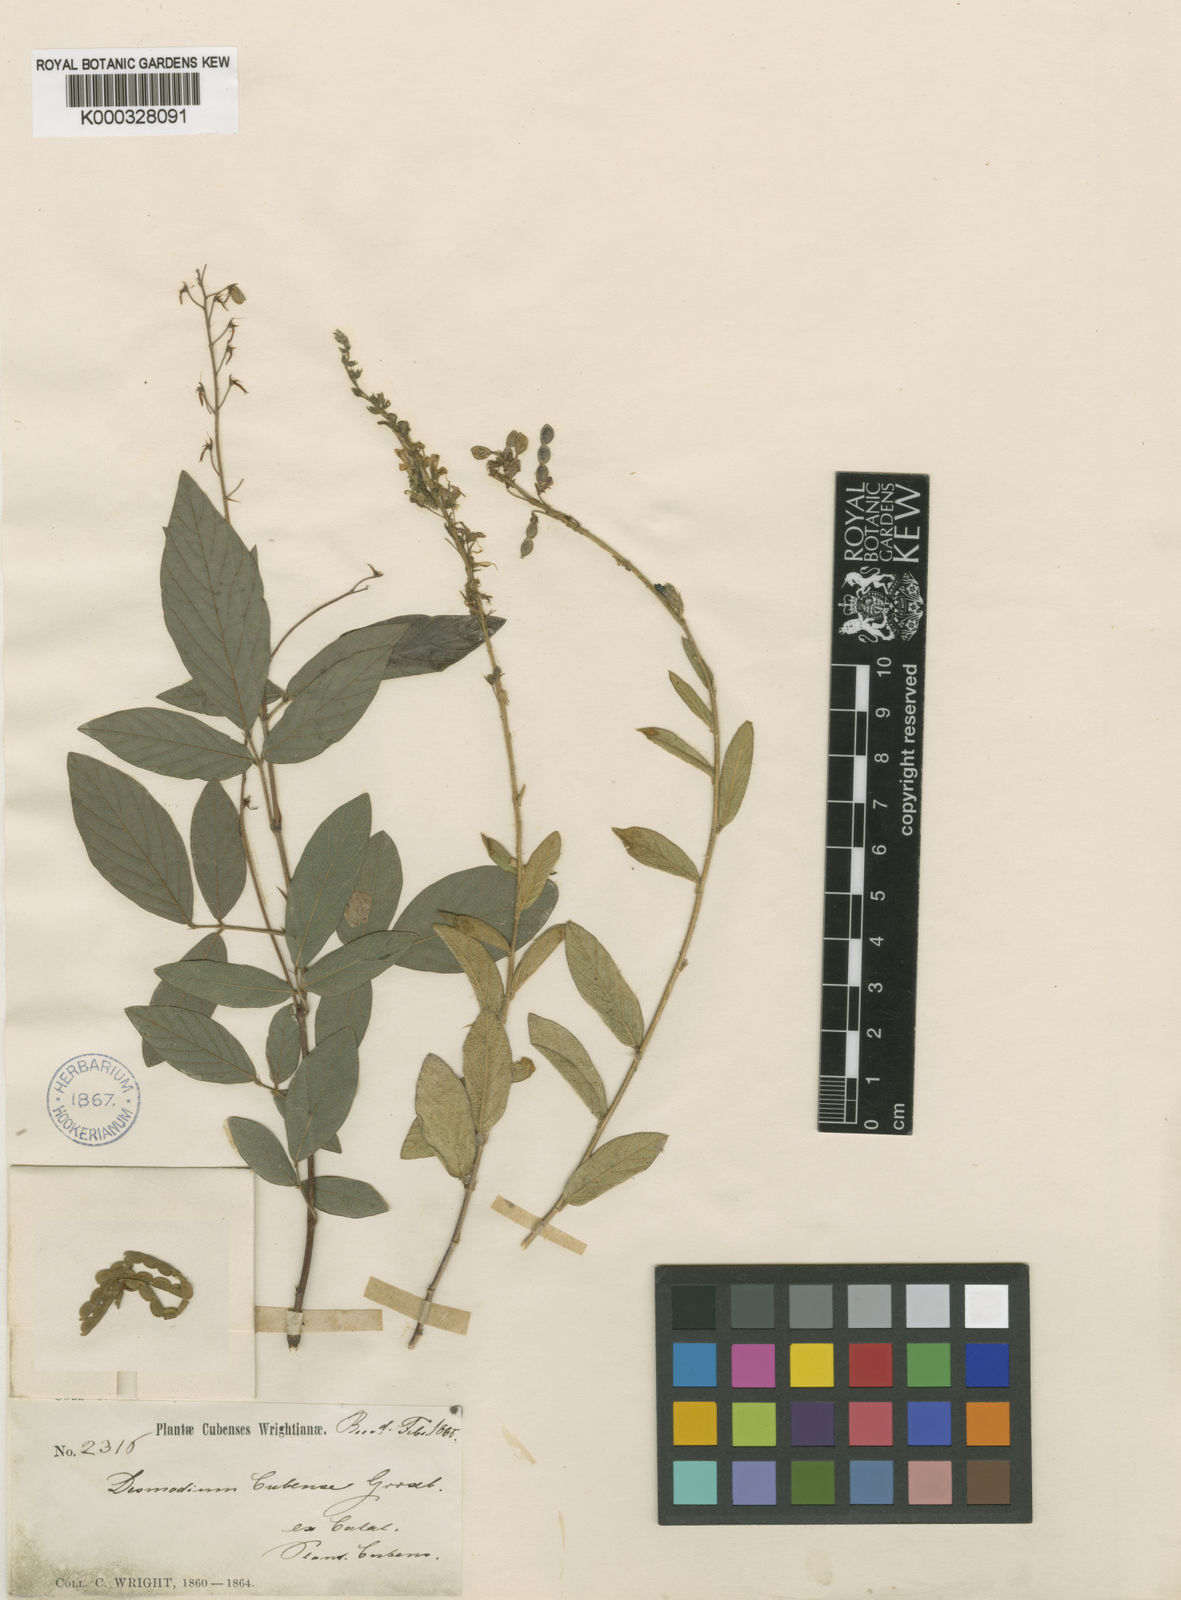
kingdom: Plantae
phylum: Tracheophyta
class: Magnoliopsida
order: Fabales
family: Fabaceae
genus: Desmodium
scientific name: Desmodium cubense
